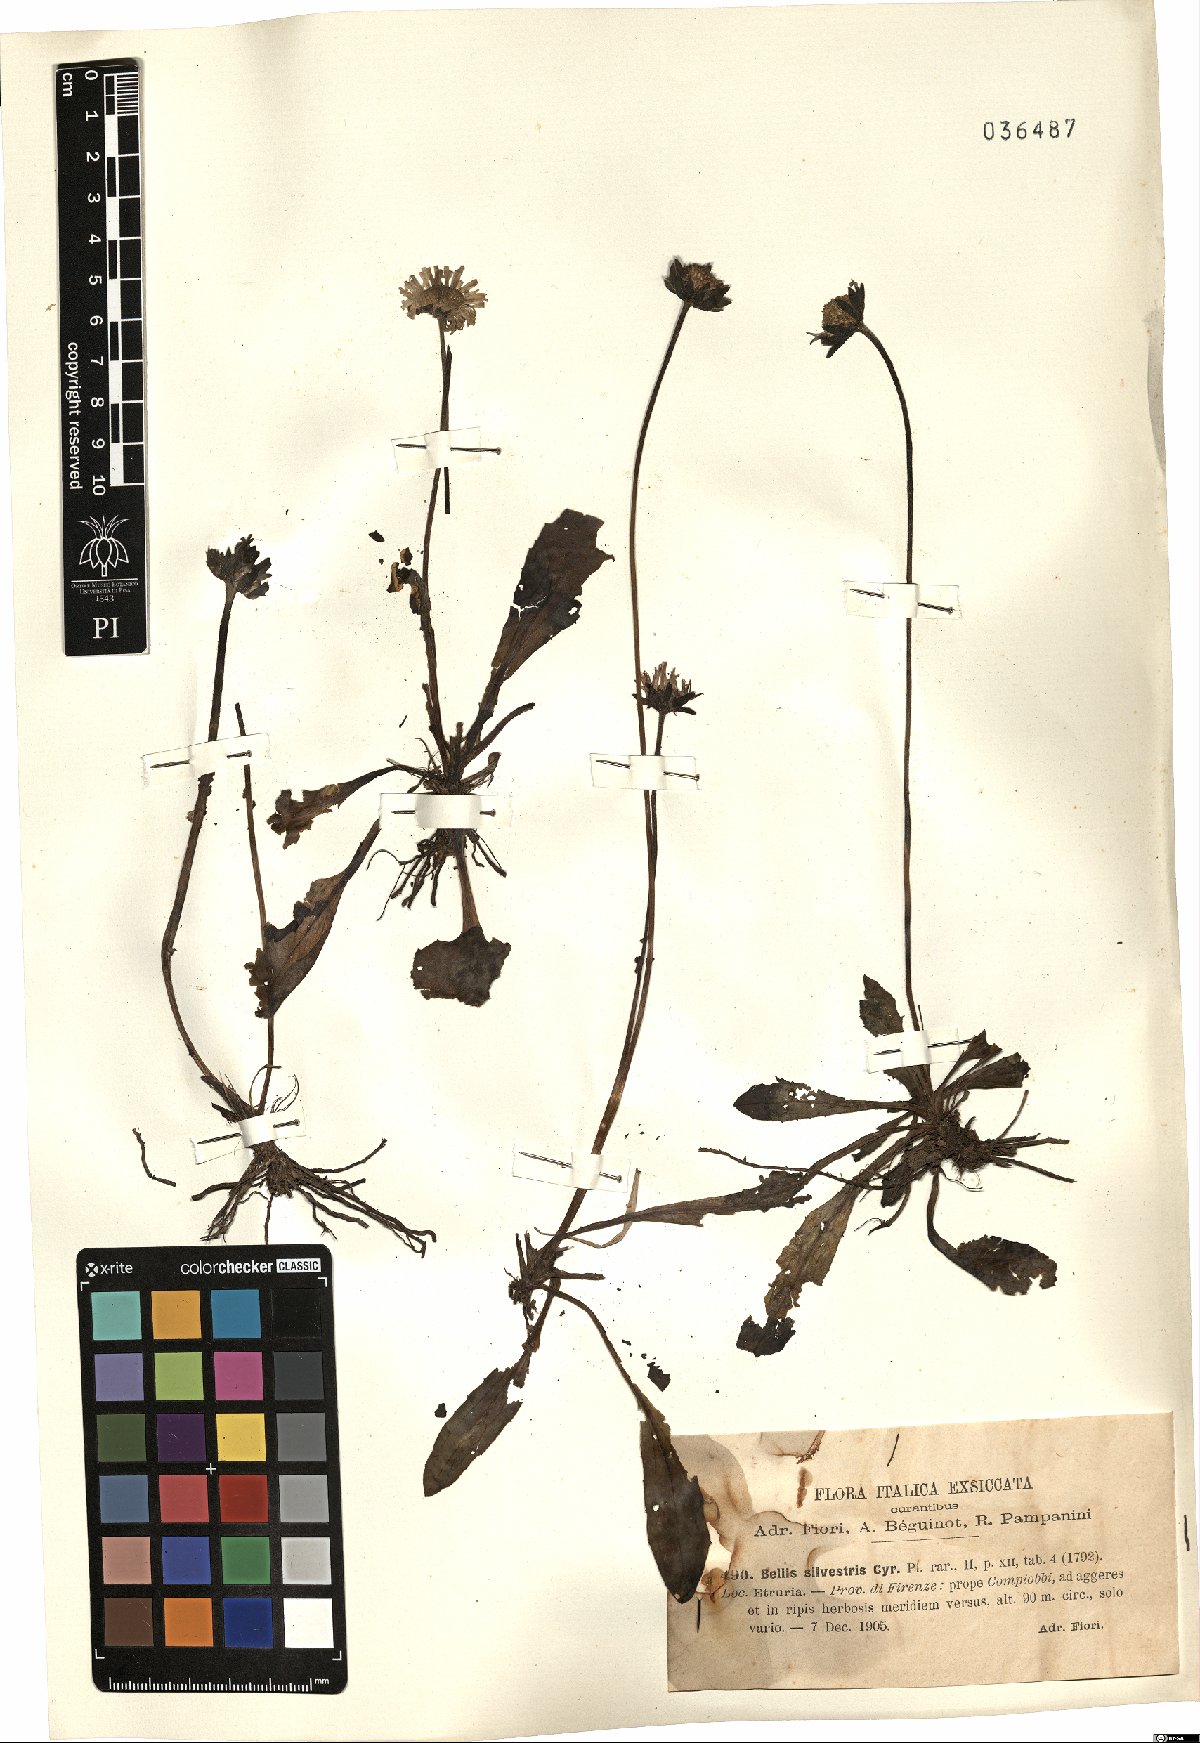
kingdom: Plantae
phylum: Tracheophyta
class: Magnoliopsida
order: Asterales
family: Asteraceae
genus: Bellis
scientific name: Bellis sylvestris
